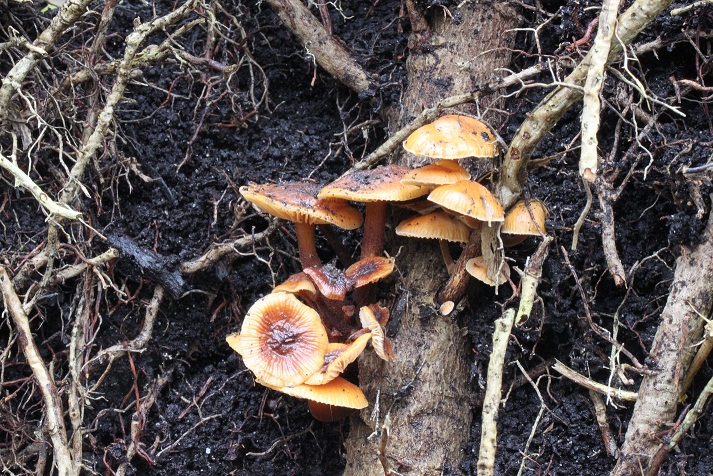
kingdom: Fungi
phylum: Basidiomycota
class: Agaricomycetes
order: Agaricales
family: Physalacriaceae
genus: Flammulina
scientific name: Flammulina velutipes
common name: gul fløjlsfod
